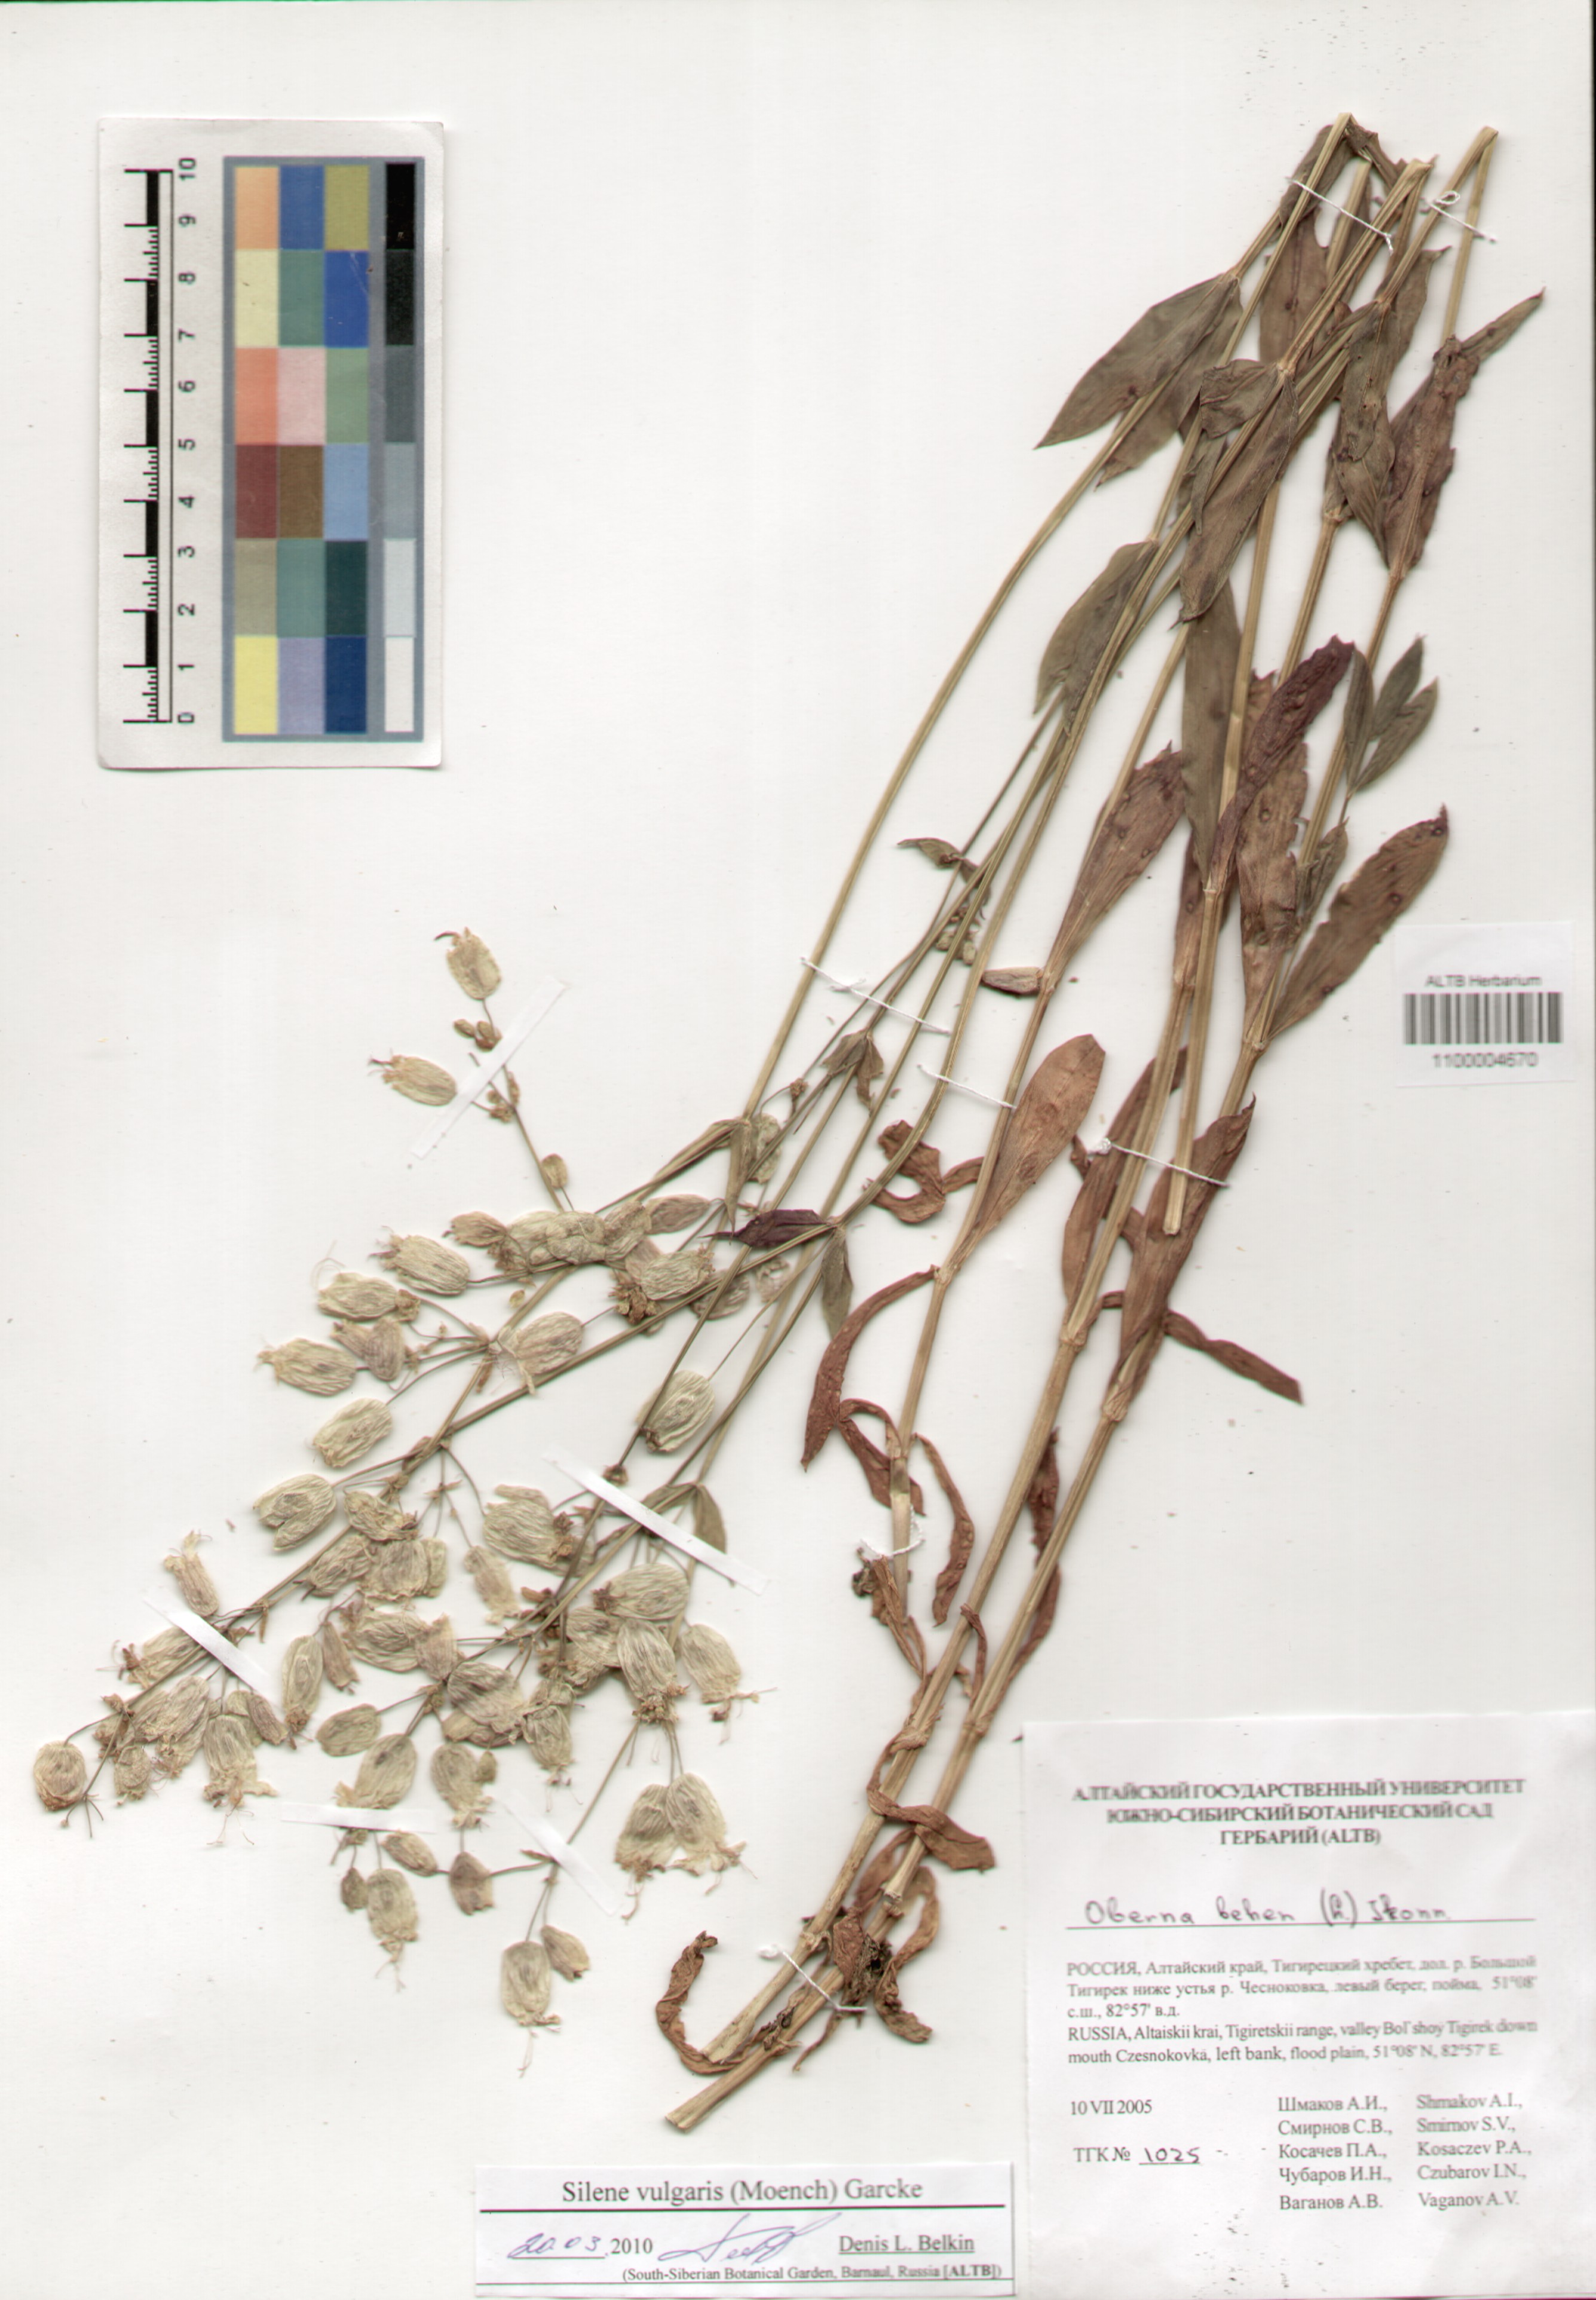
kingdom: Plantae
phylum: Tracheophyta
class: Magnoliopsida
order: Caryophyllales
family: Caryophyllaceae
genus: Silene
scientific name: Silene vulgaris
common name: Bladder campion
